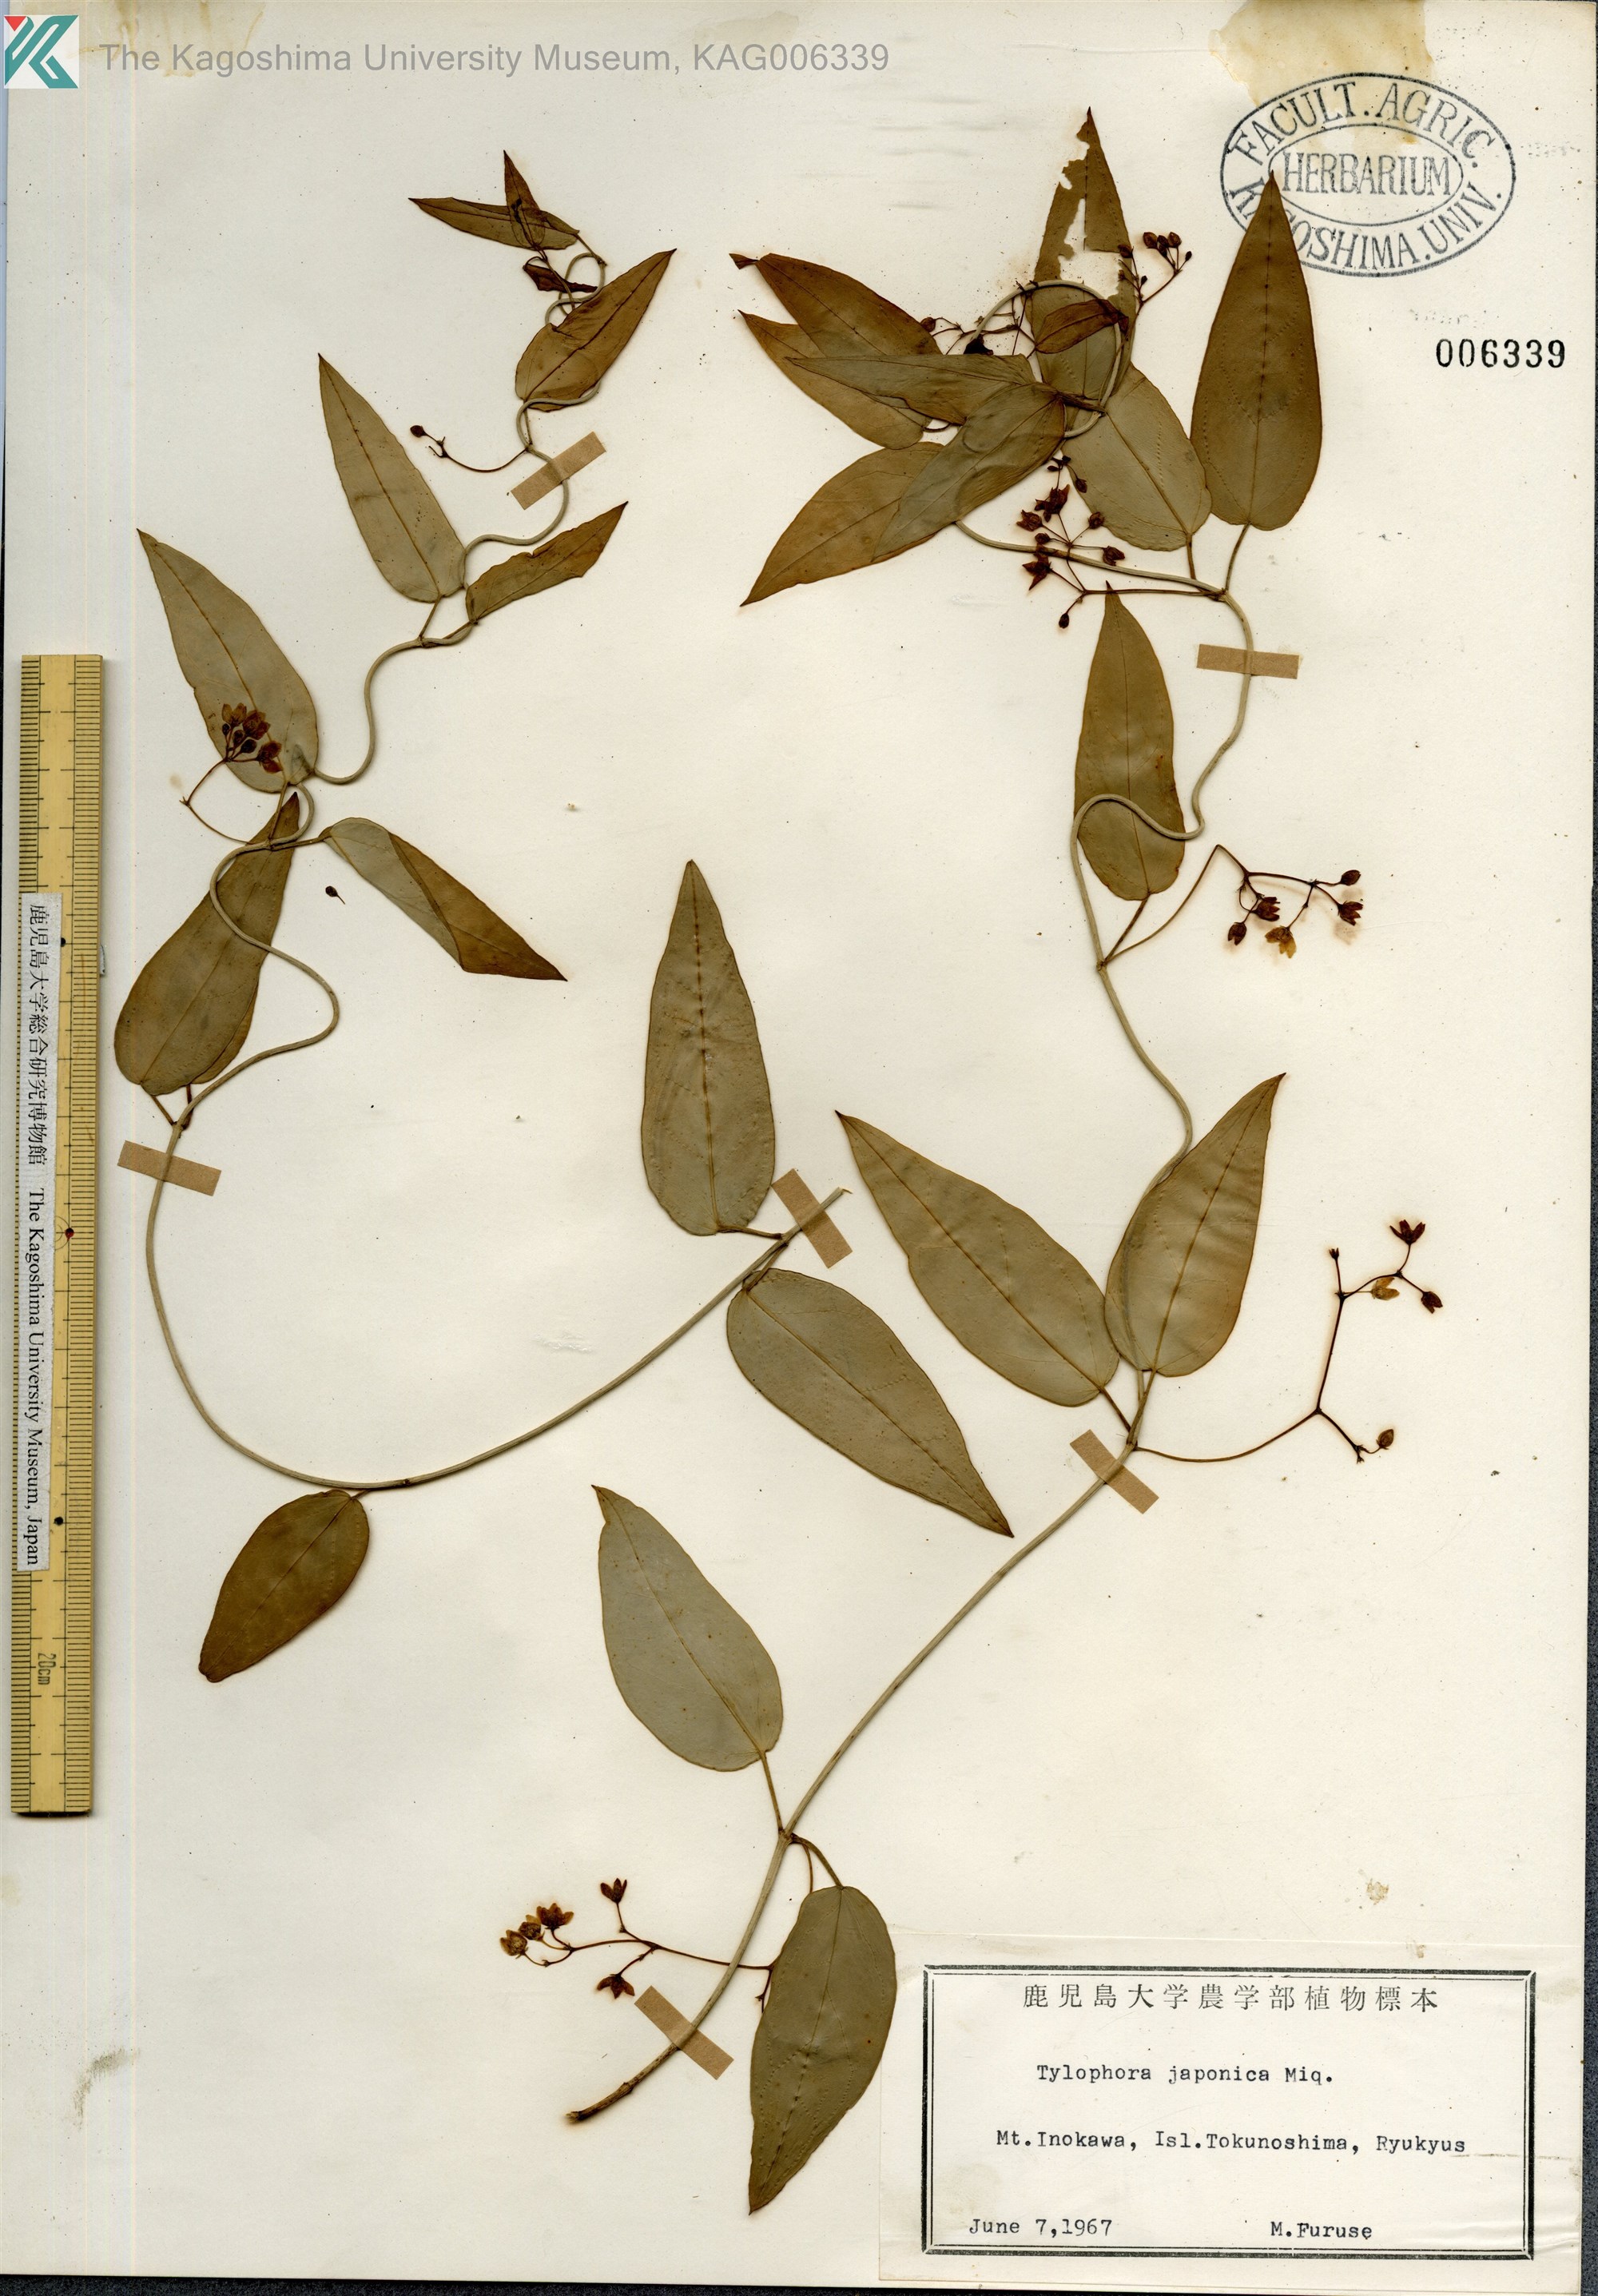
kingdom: Plantae
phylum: Tracheophyta
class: Magnoliopsida
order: Gentianales
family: Apocynaceae
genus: Vincetoxicum
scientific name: Vincetoxicum sieboldii
